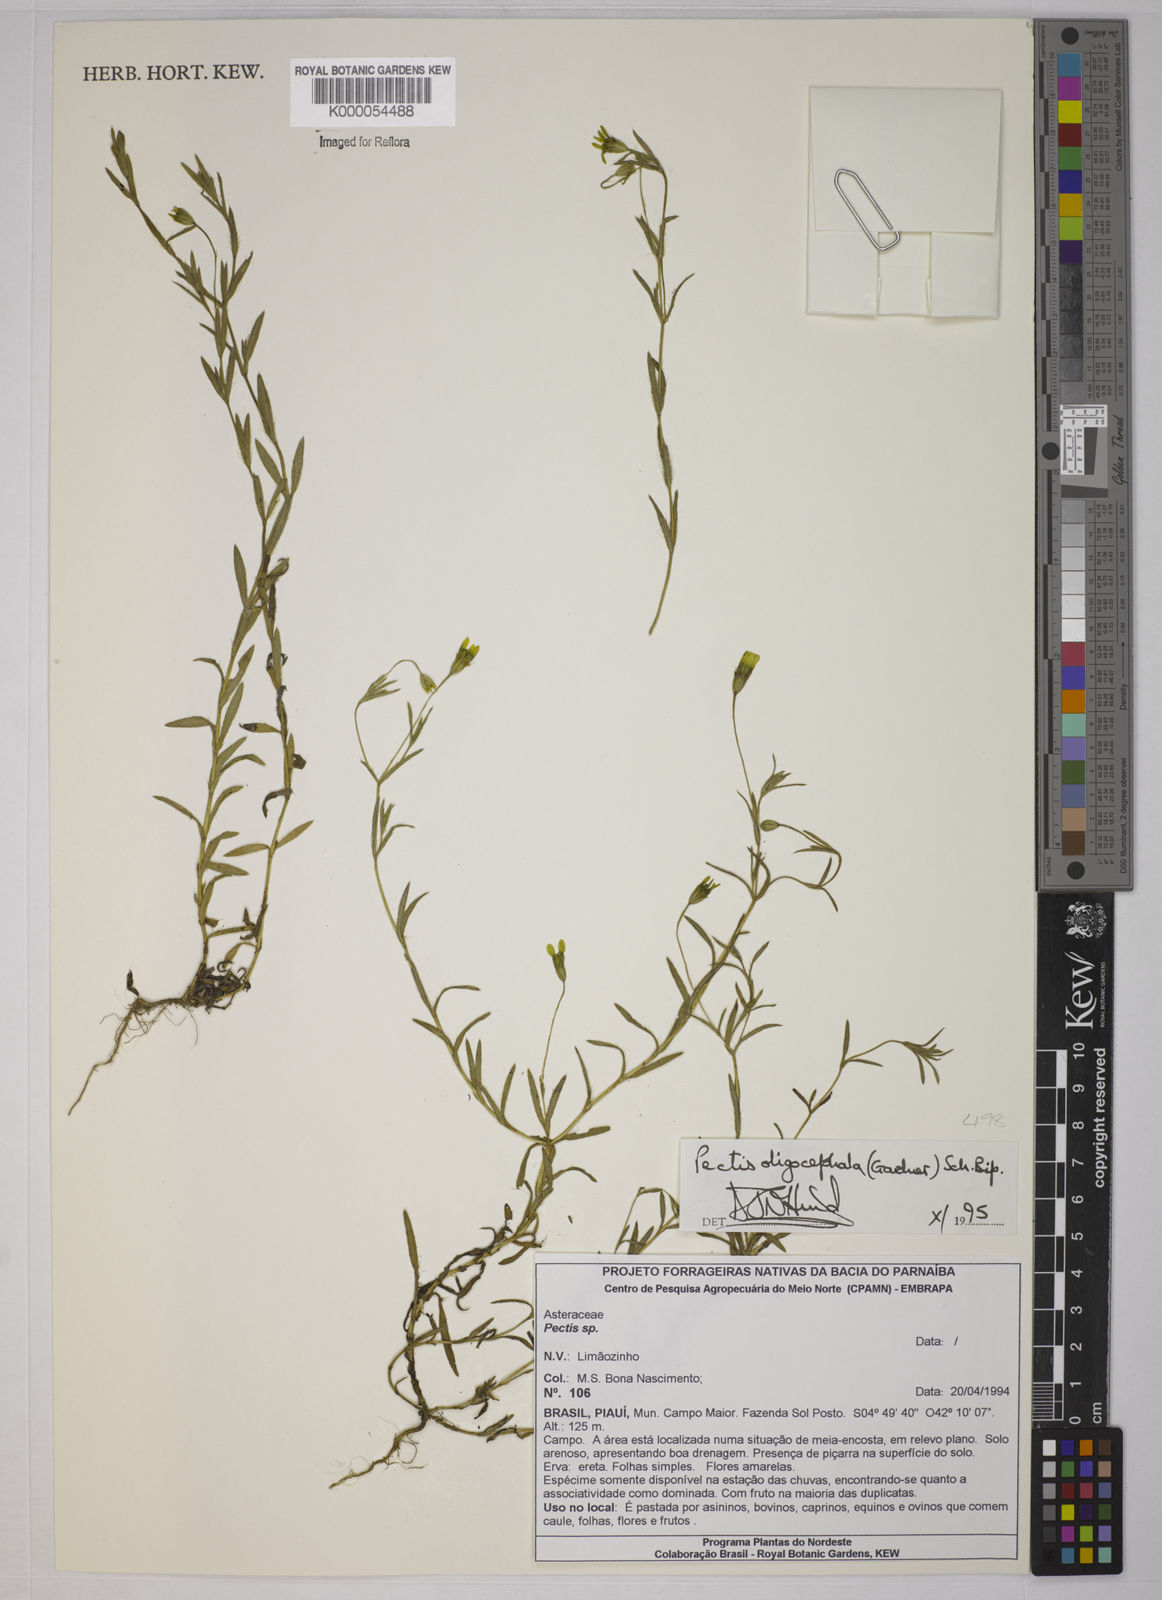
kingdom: Plantae
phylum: Tracheophyta
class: Magnoliopsida
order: Asterales
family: Asteraceae
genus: Pectis
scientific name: Pectis oligocephala
